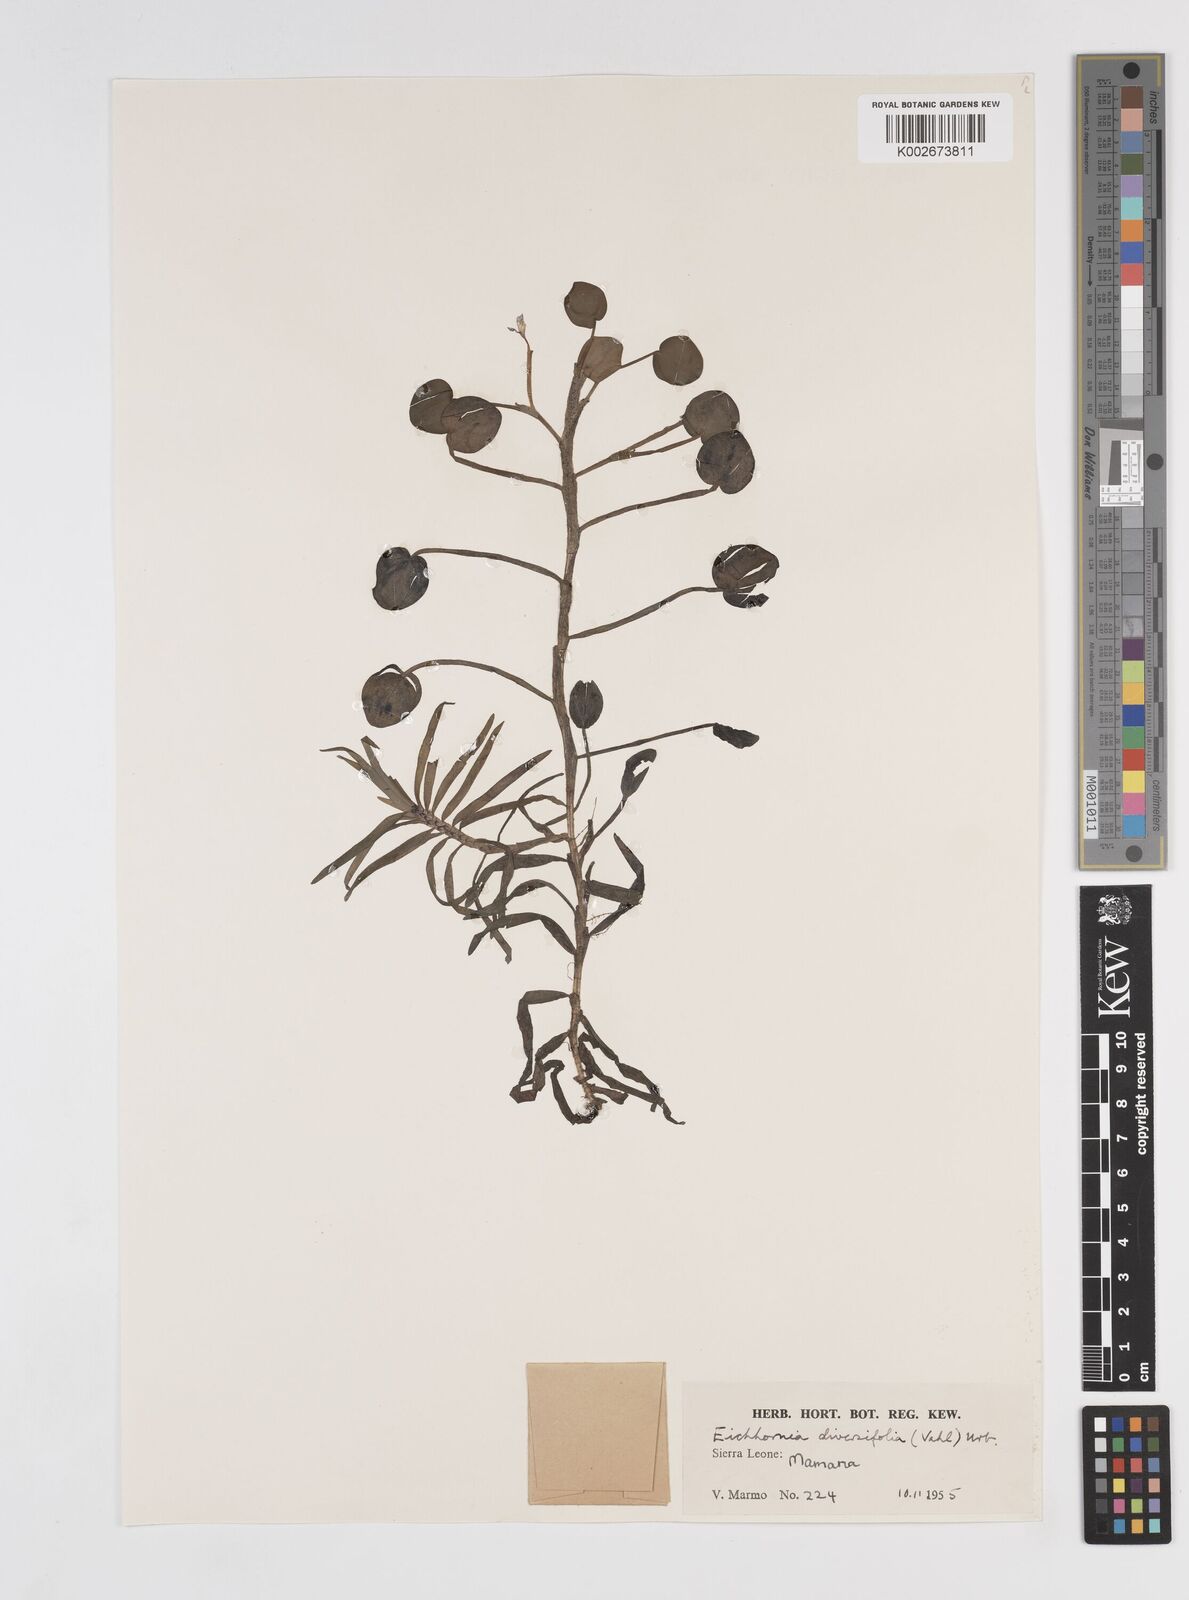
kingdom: Plantae
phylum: Tracheophyta
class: Liliopsida
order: Commelinales
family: Pontederiaceae
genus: Pontederia
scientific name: Pontederia diversifolia
